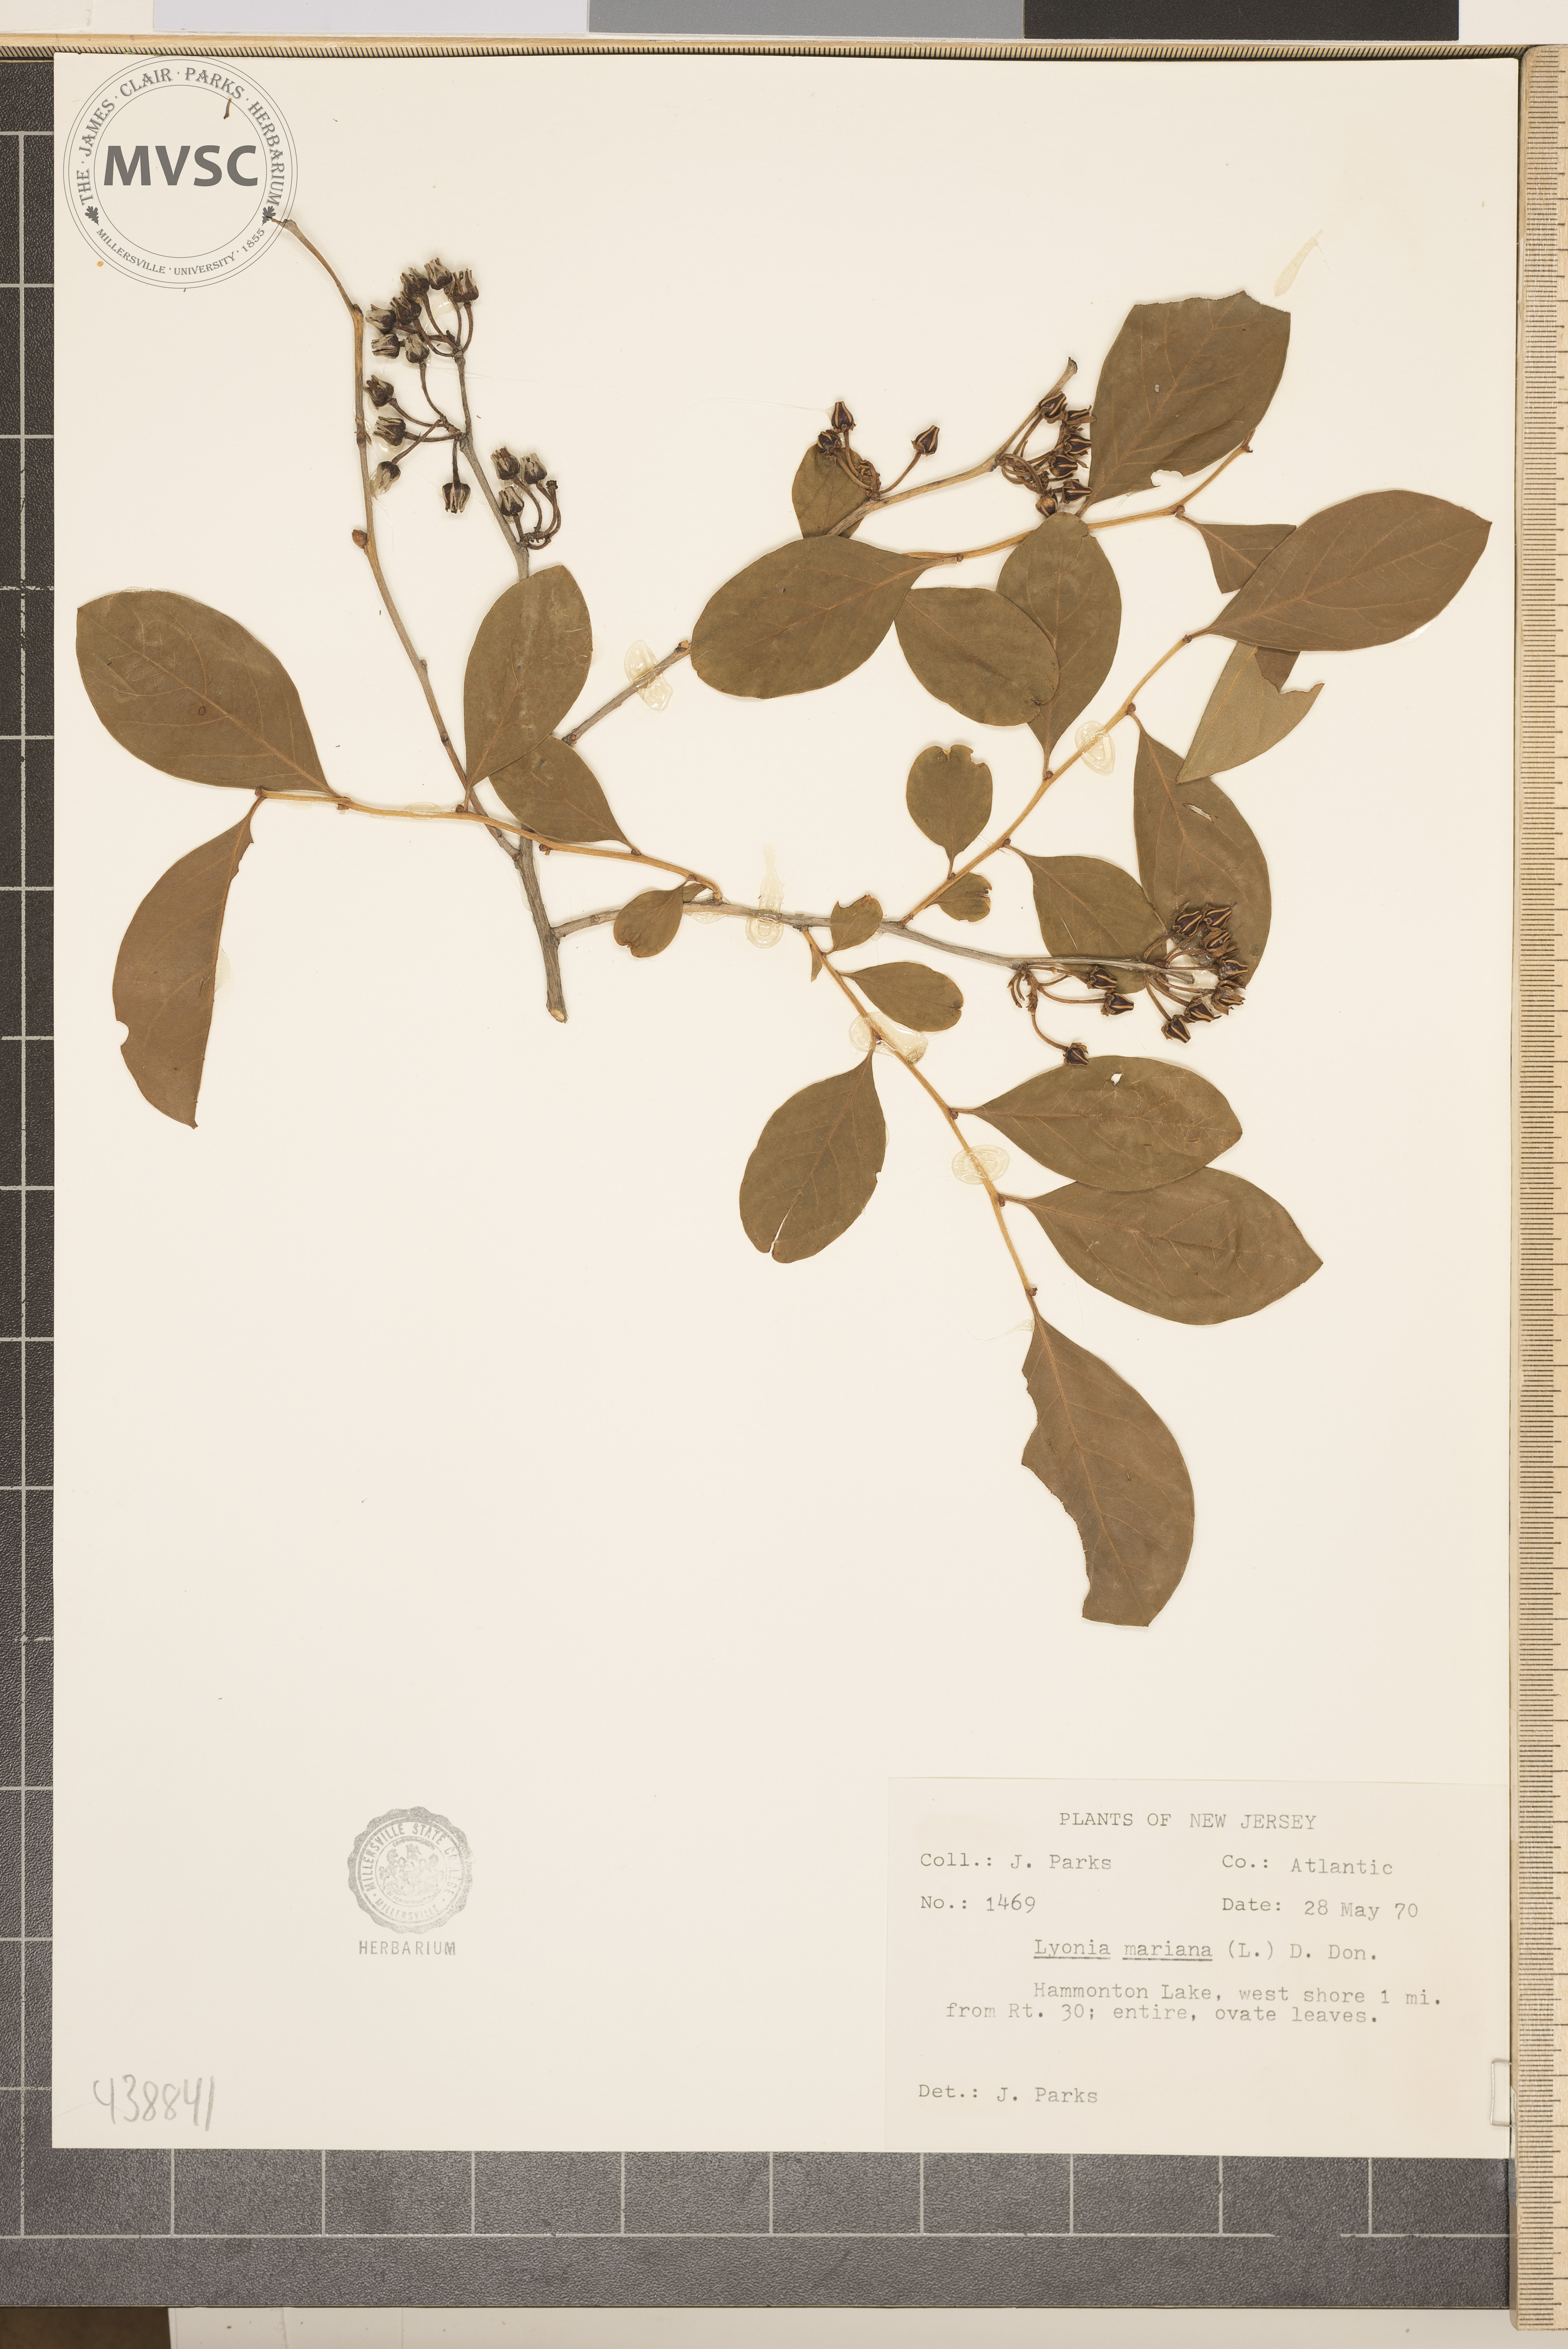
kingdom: Plantae
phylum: Tracheophyta
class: Magnoliopsida
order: Ericales
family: Ericaceae
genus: Lyonia
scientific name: Lyonia mariana
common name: Staggerbush
